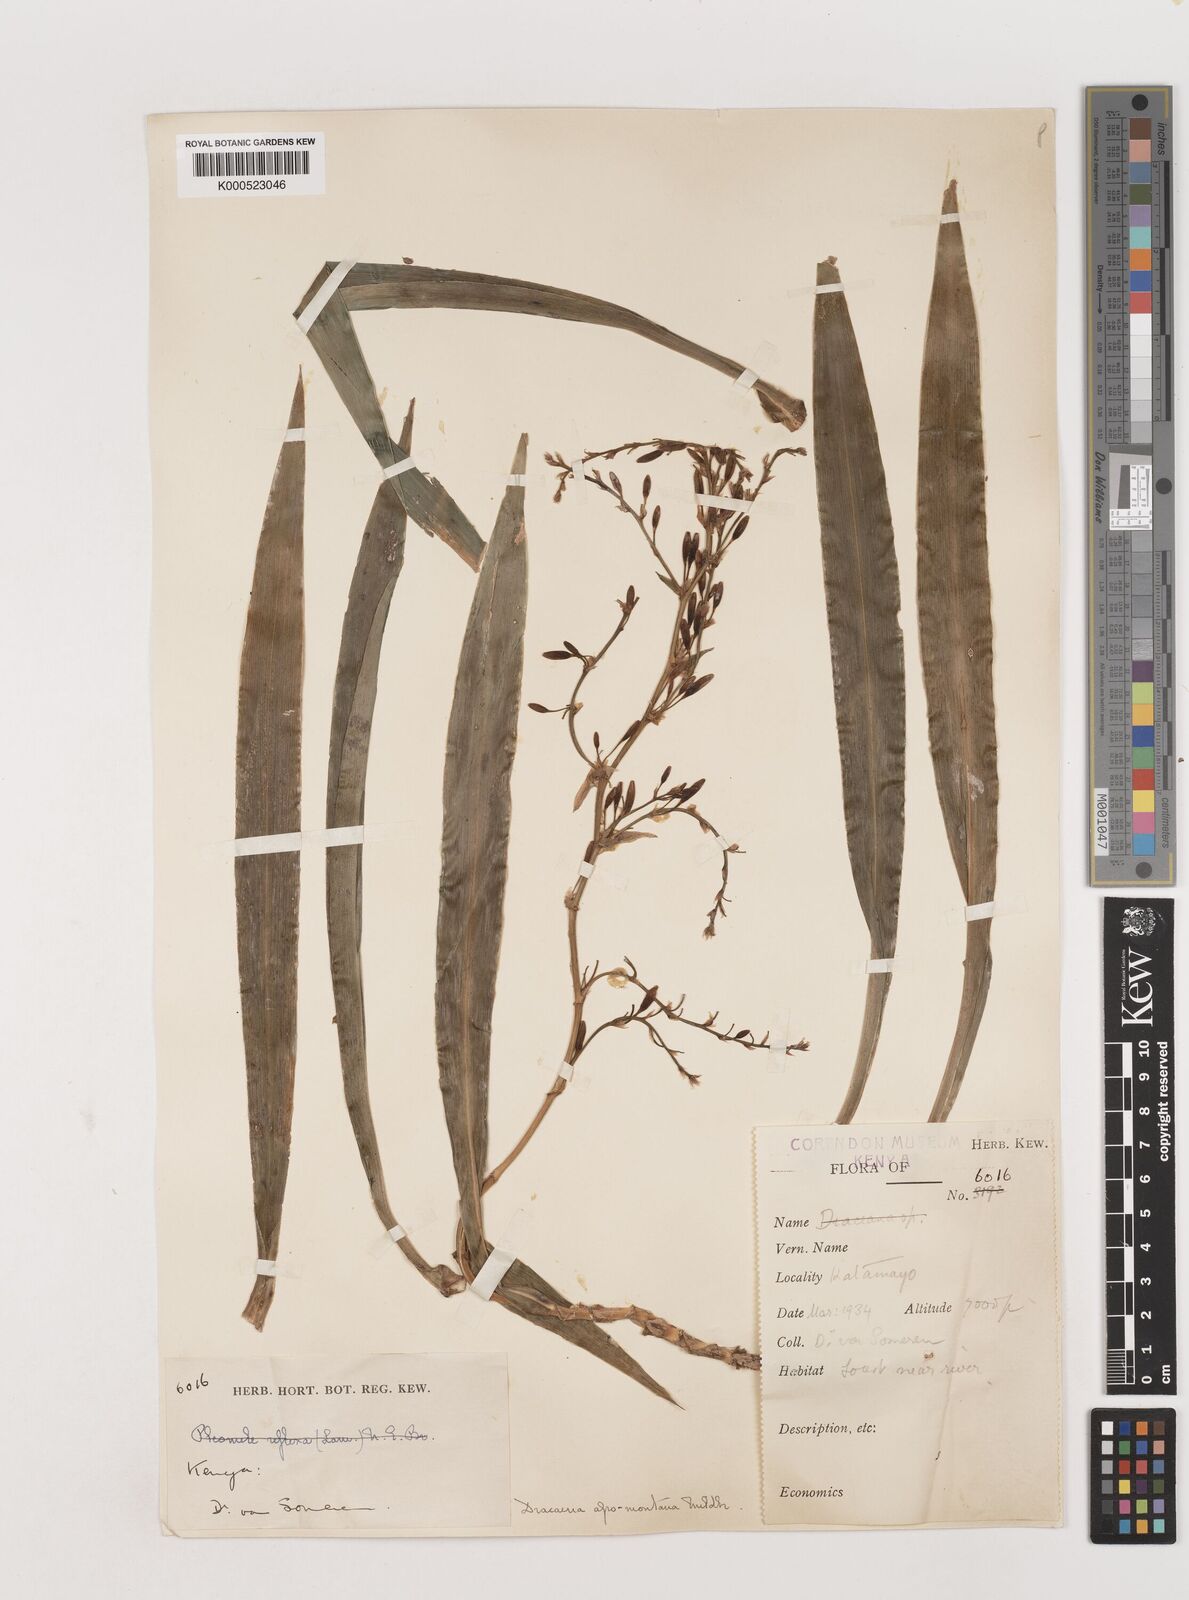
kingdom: Plantae
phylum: Tracheophyta
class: Liliopsida
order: Asparagales
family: Asparagaceae
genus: Dracaena
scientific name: Dracaena afromontana
